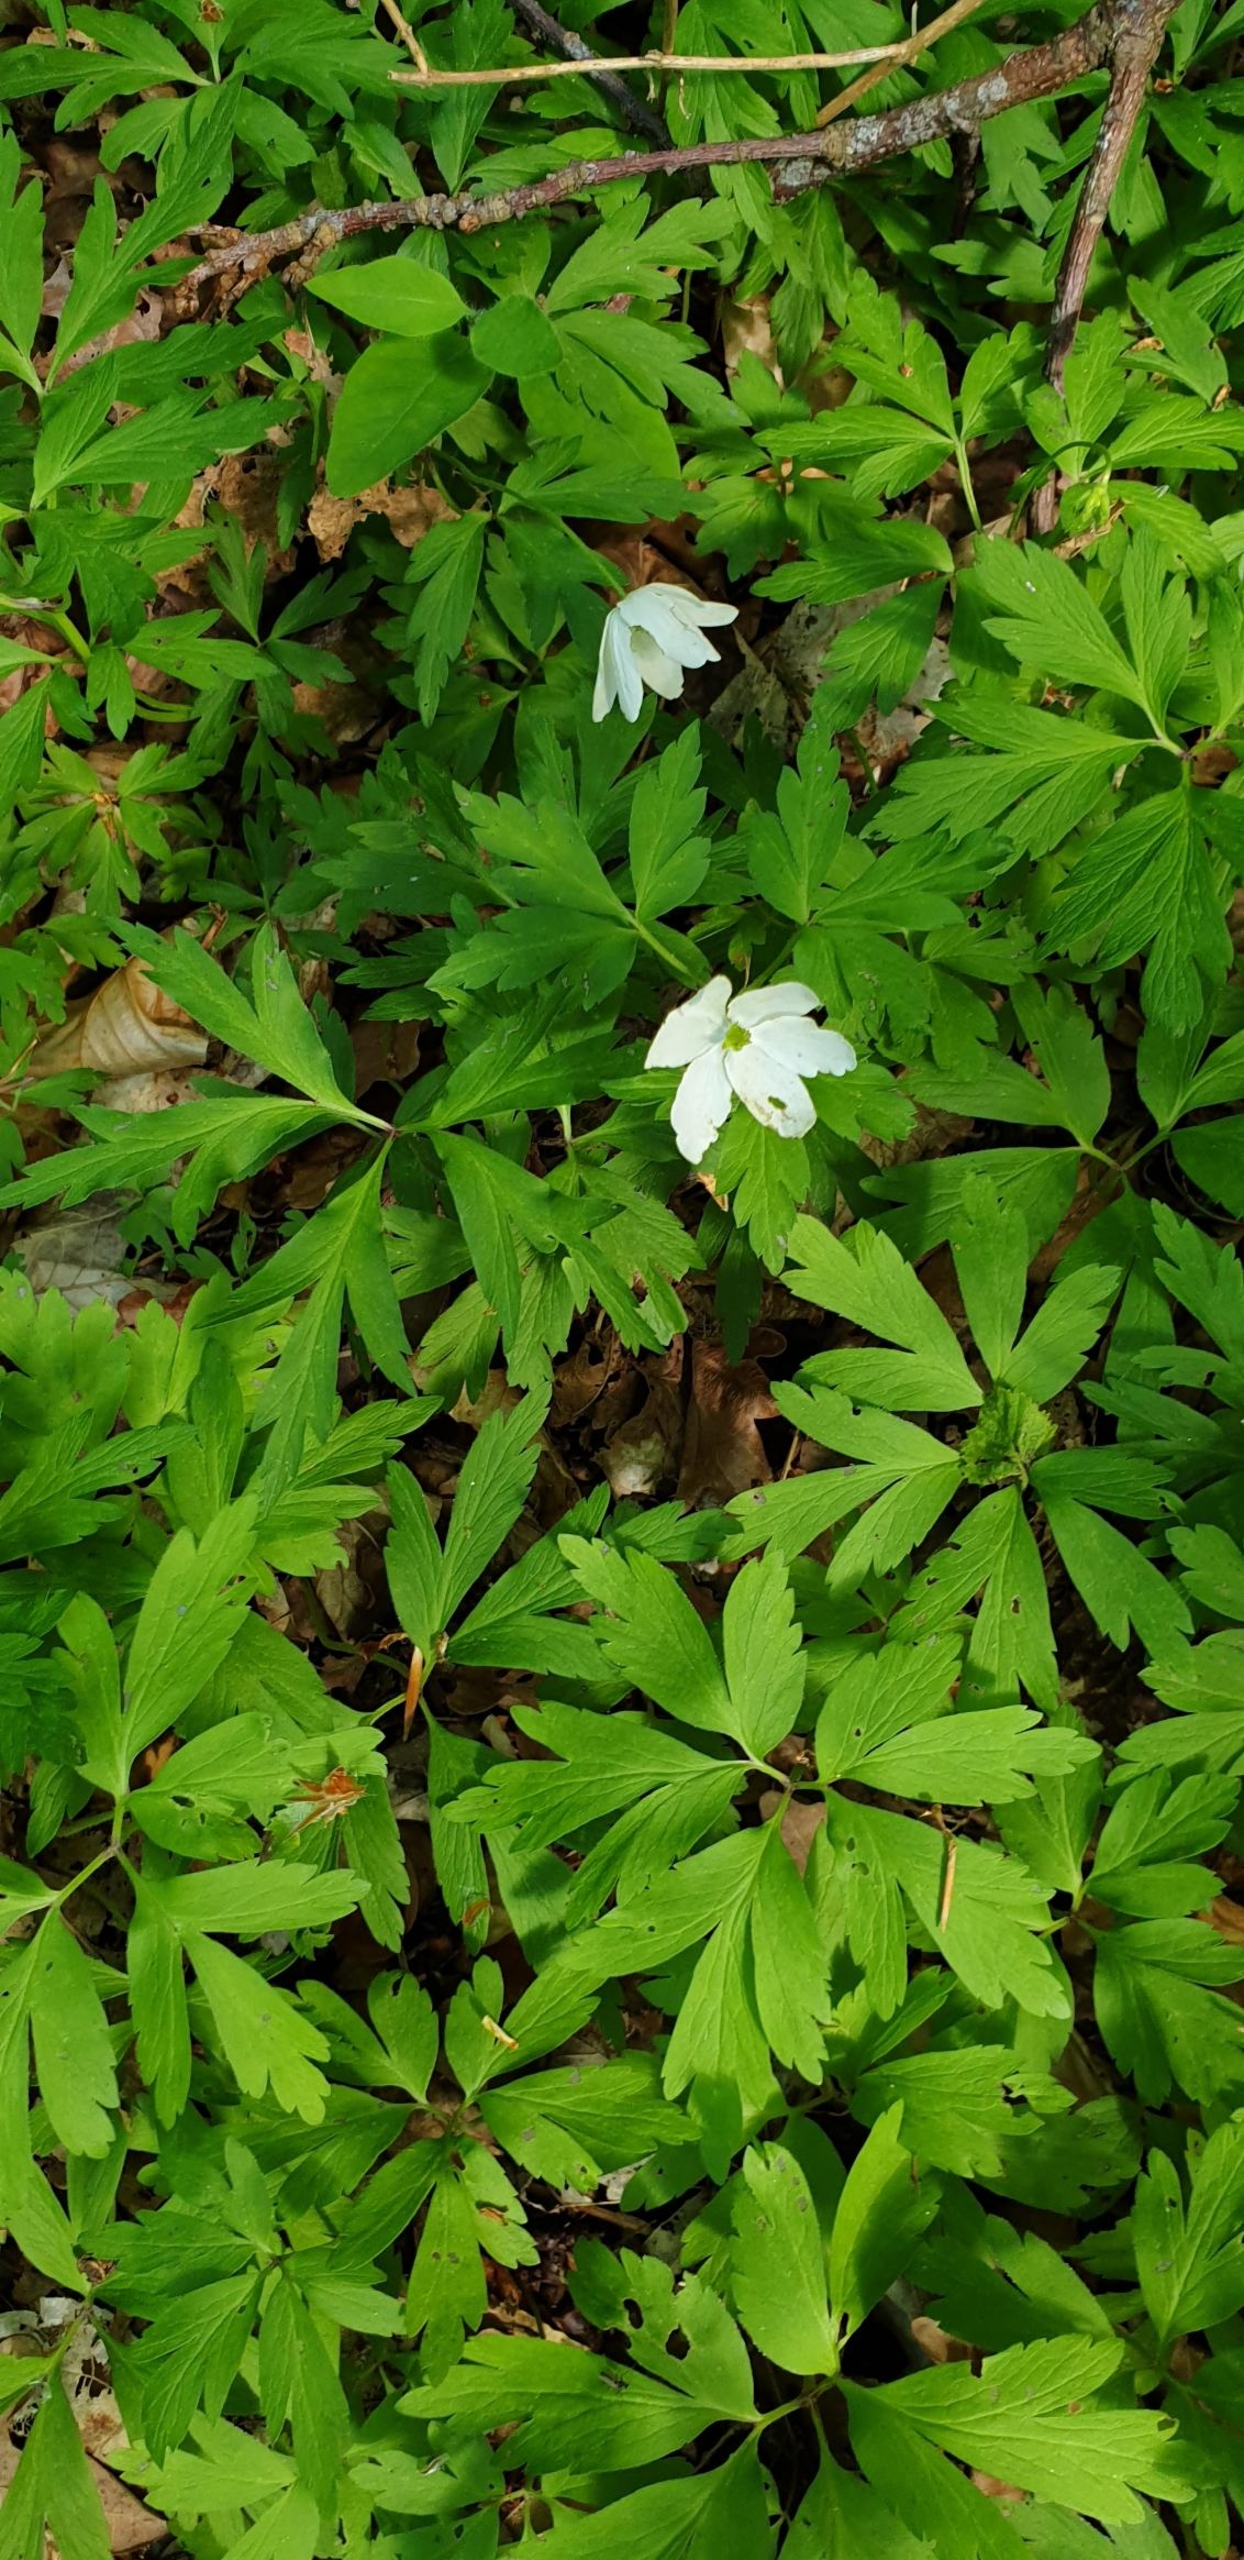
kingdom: Plantae
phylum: Tracheophyta
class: Magnoliopsida
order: Ranunculales
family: Ranunculaceae
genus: Anemone
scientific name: Anemone nemorosa
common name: Hvid anemone
